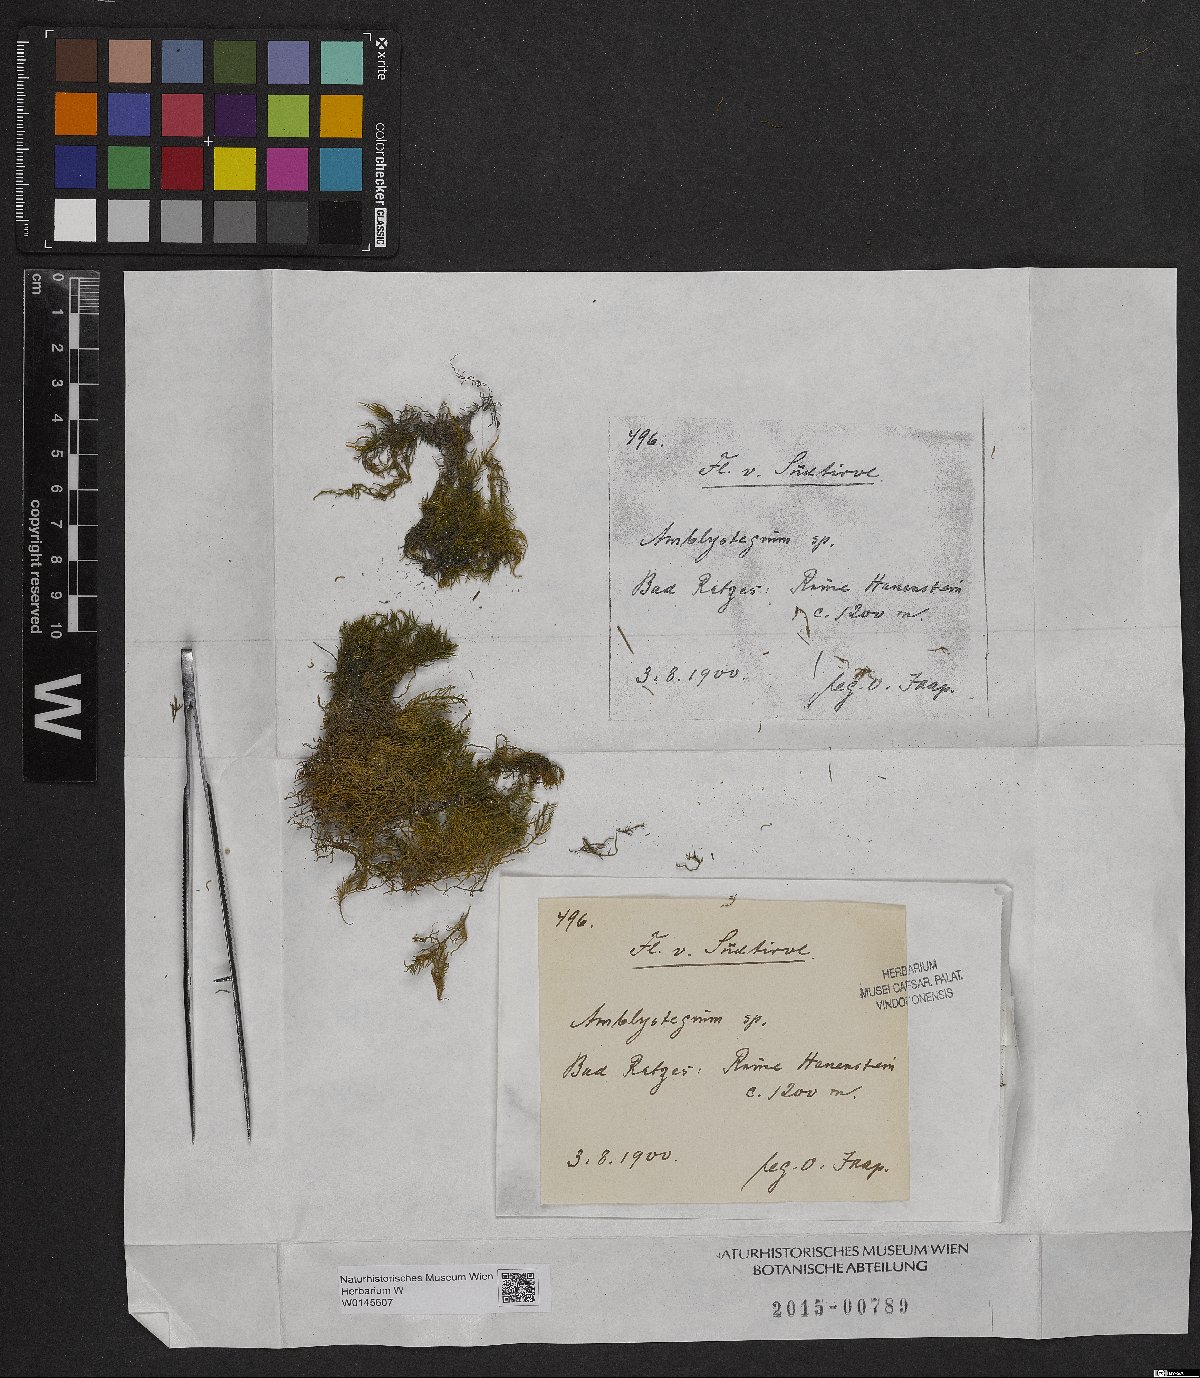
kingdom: Plantae
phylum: Bryophyta
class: Bryopsida
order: Hypnales
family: Amblystegiaceae
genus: Amblystegium
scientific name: Amblystegium
